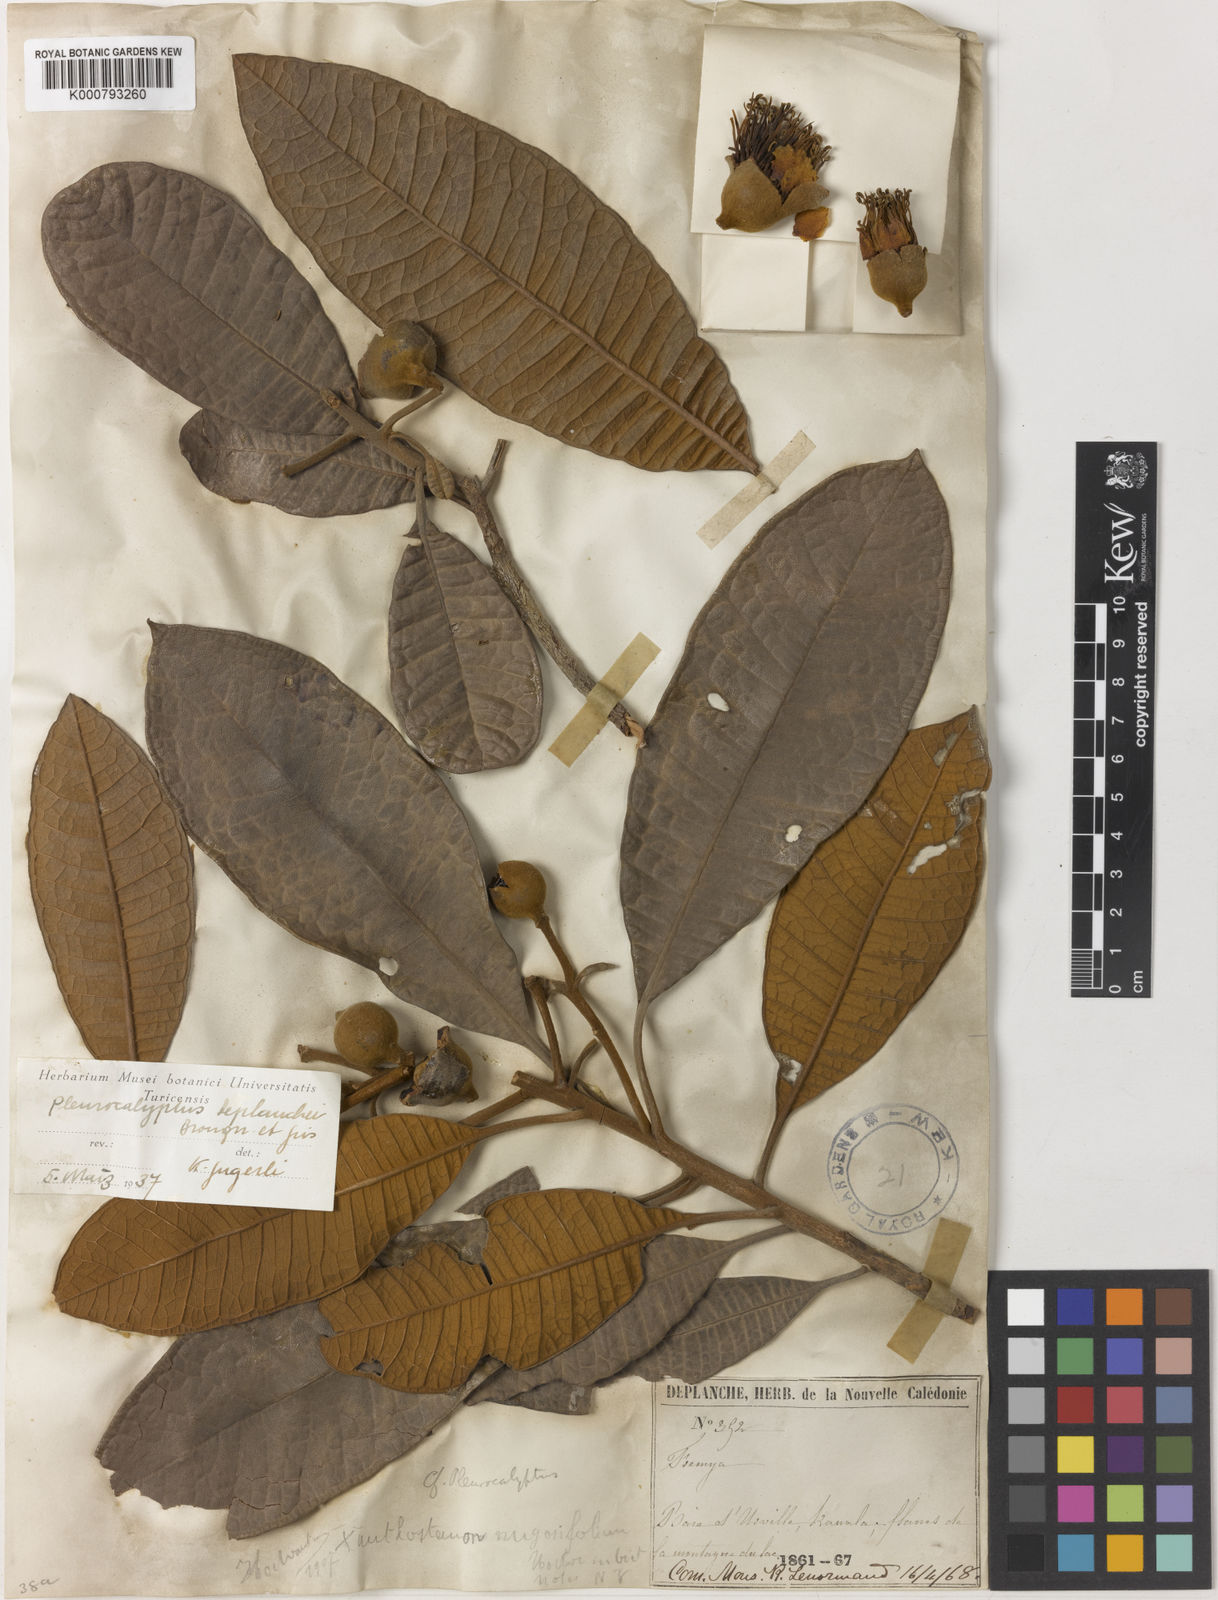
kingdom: Plantae
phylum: Tracheophyta
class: Magnoliopsida
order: Myrtales
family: Myrtaceae
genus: Pleurocalyptus
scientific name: Pleurocalyptus pancheri
